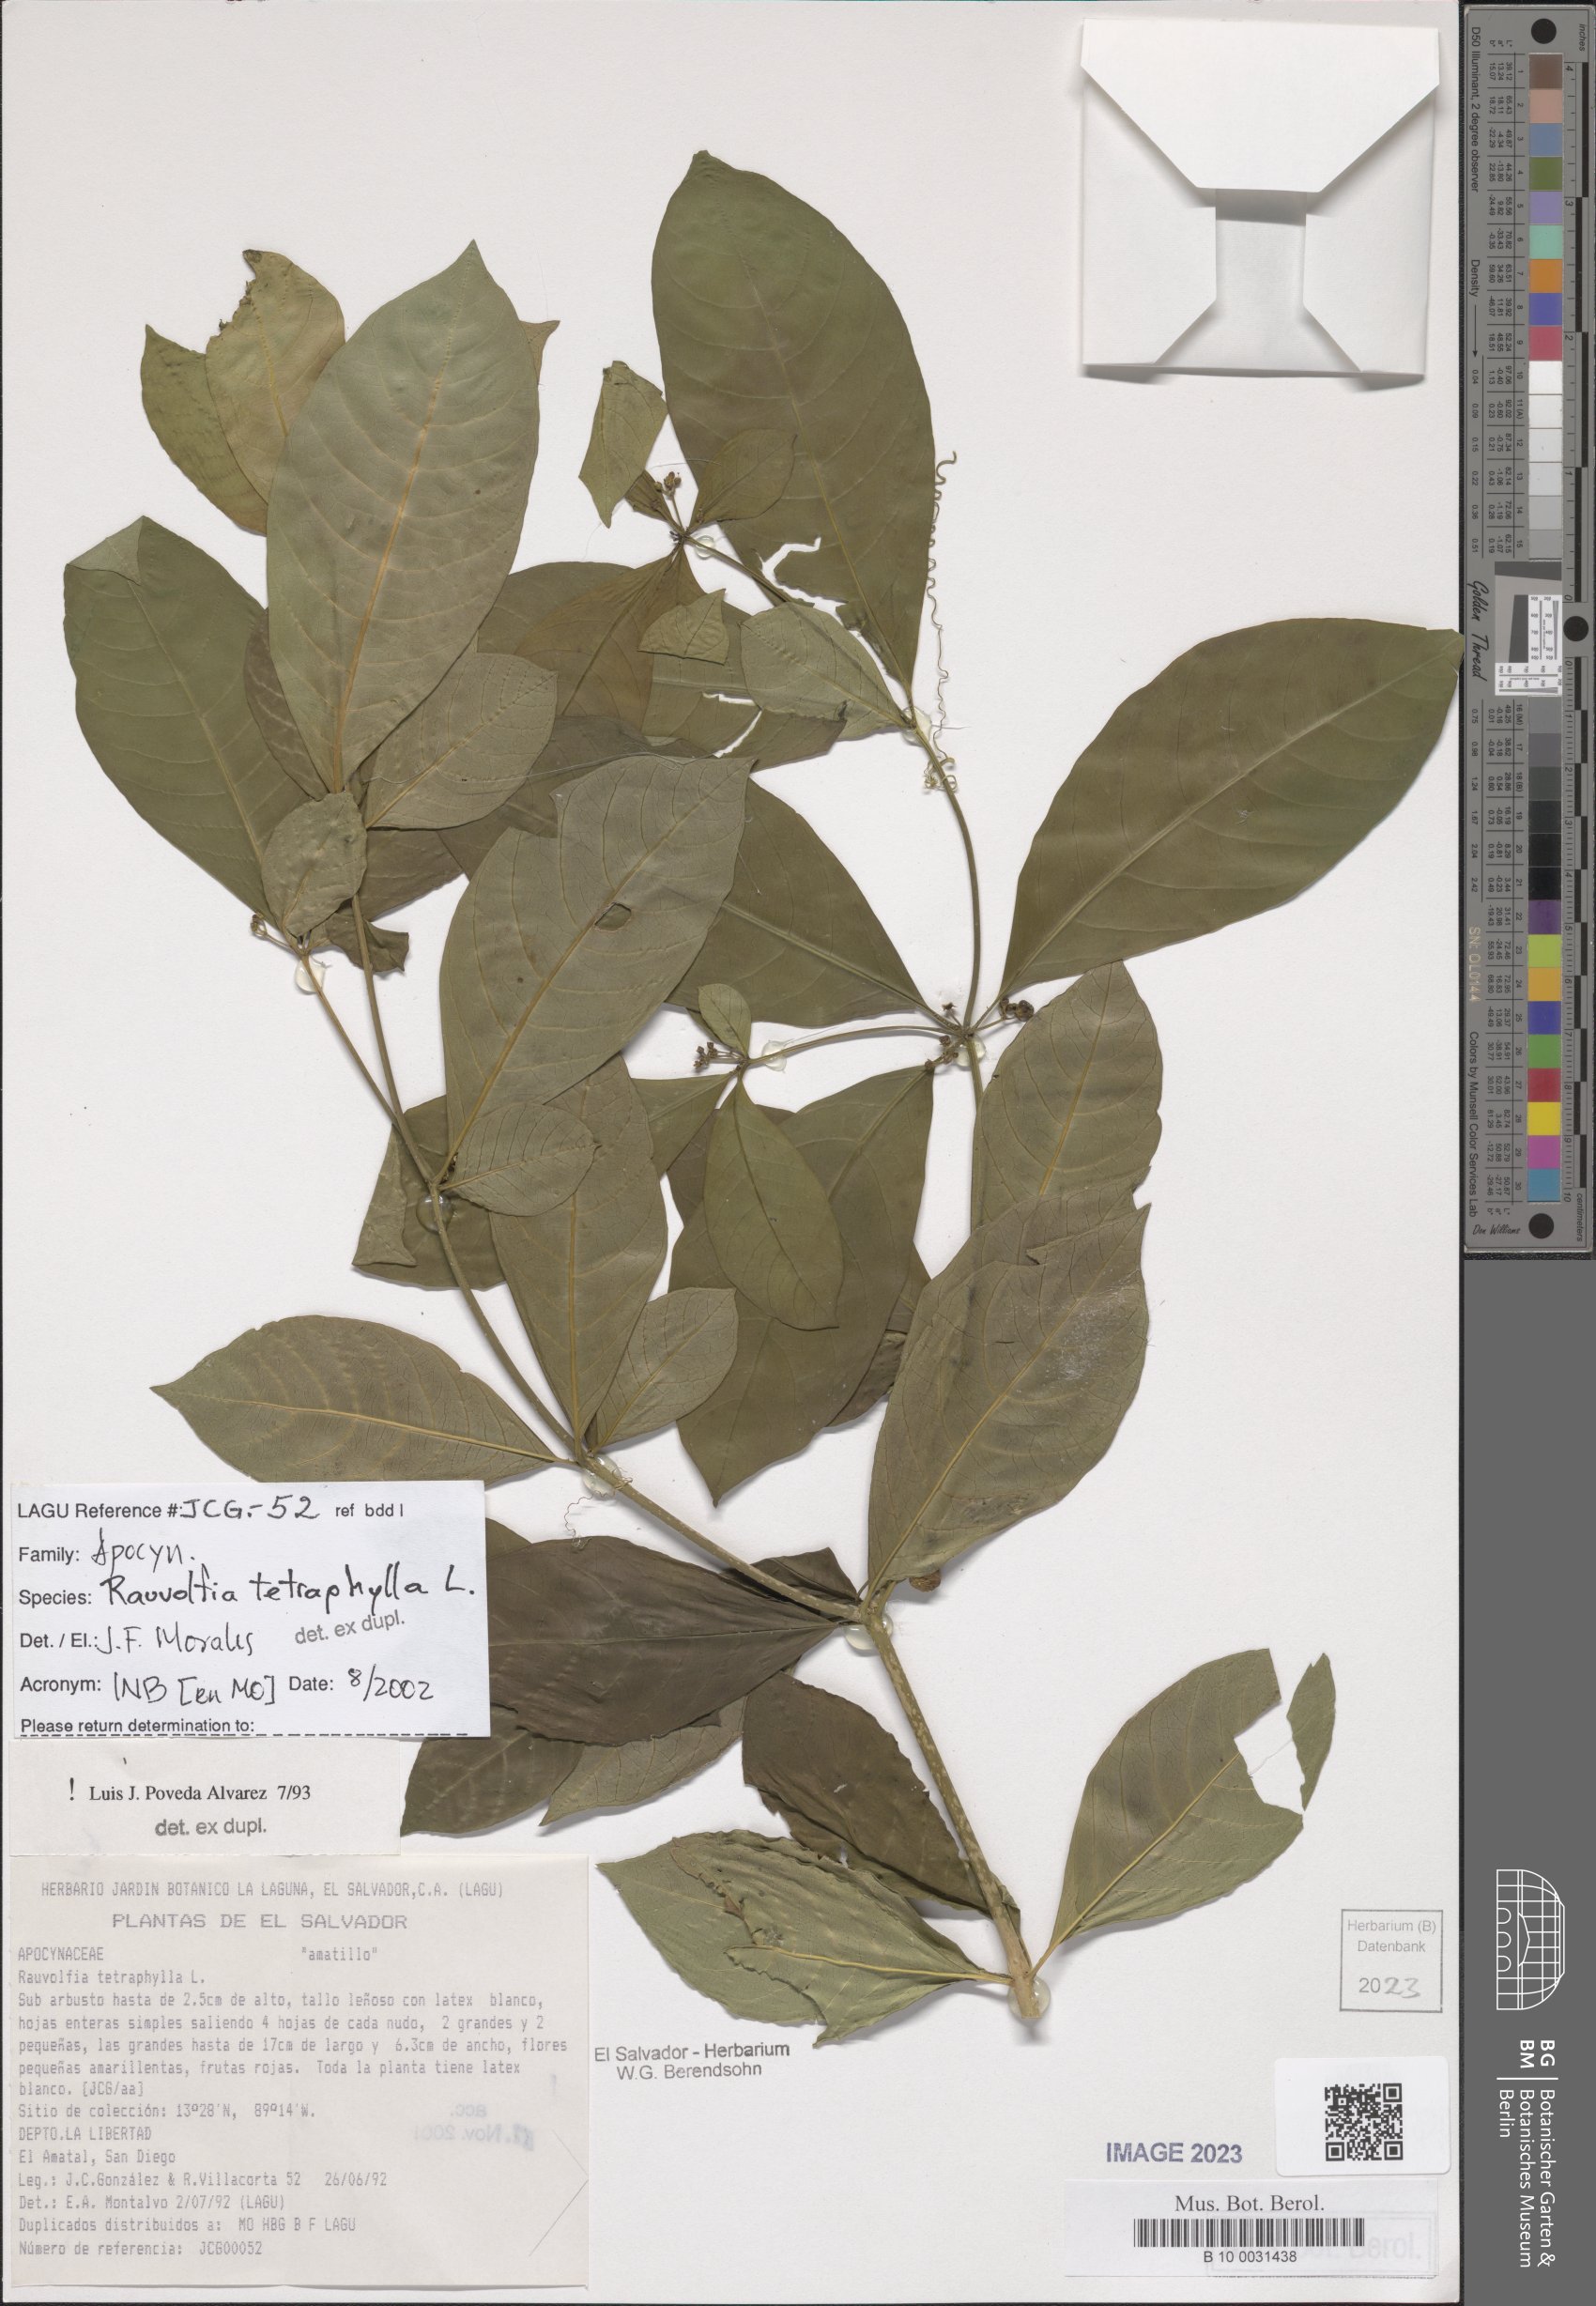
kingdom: Plantae
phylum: Tracheophyta
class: Magnoliopsida
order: Gentianales
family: Apocynaceae
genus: Rauvolfia
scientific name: Rauvolfia tetraphylla
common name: Four-leaf devil-pepper
